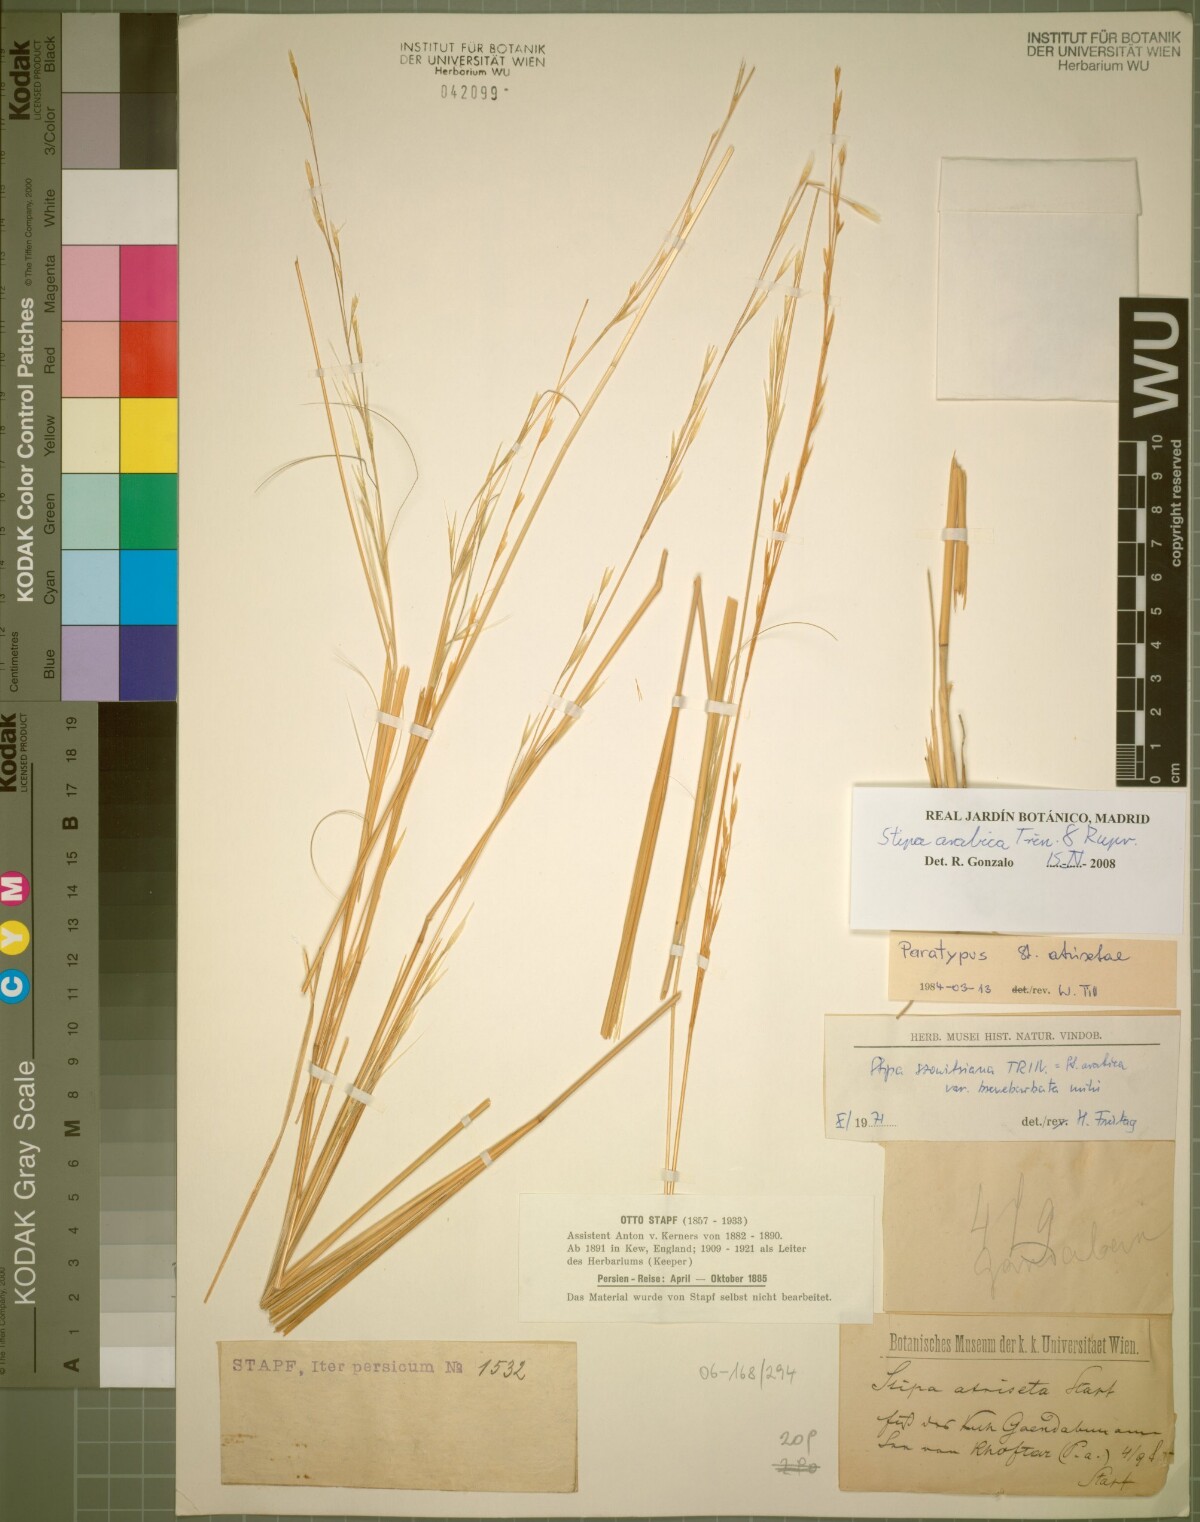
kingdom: Plantae
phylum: Tracheophyta
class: Liliopsida
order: Poales
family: Poaceae
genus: Stipa
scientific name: Stipa hohenackeriana
